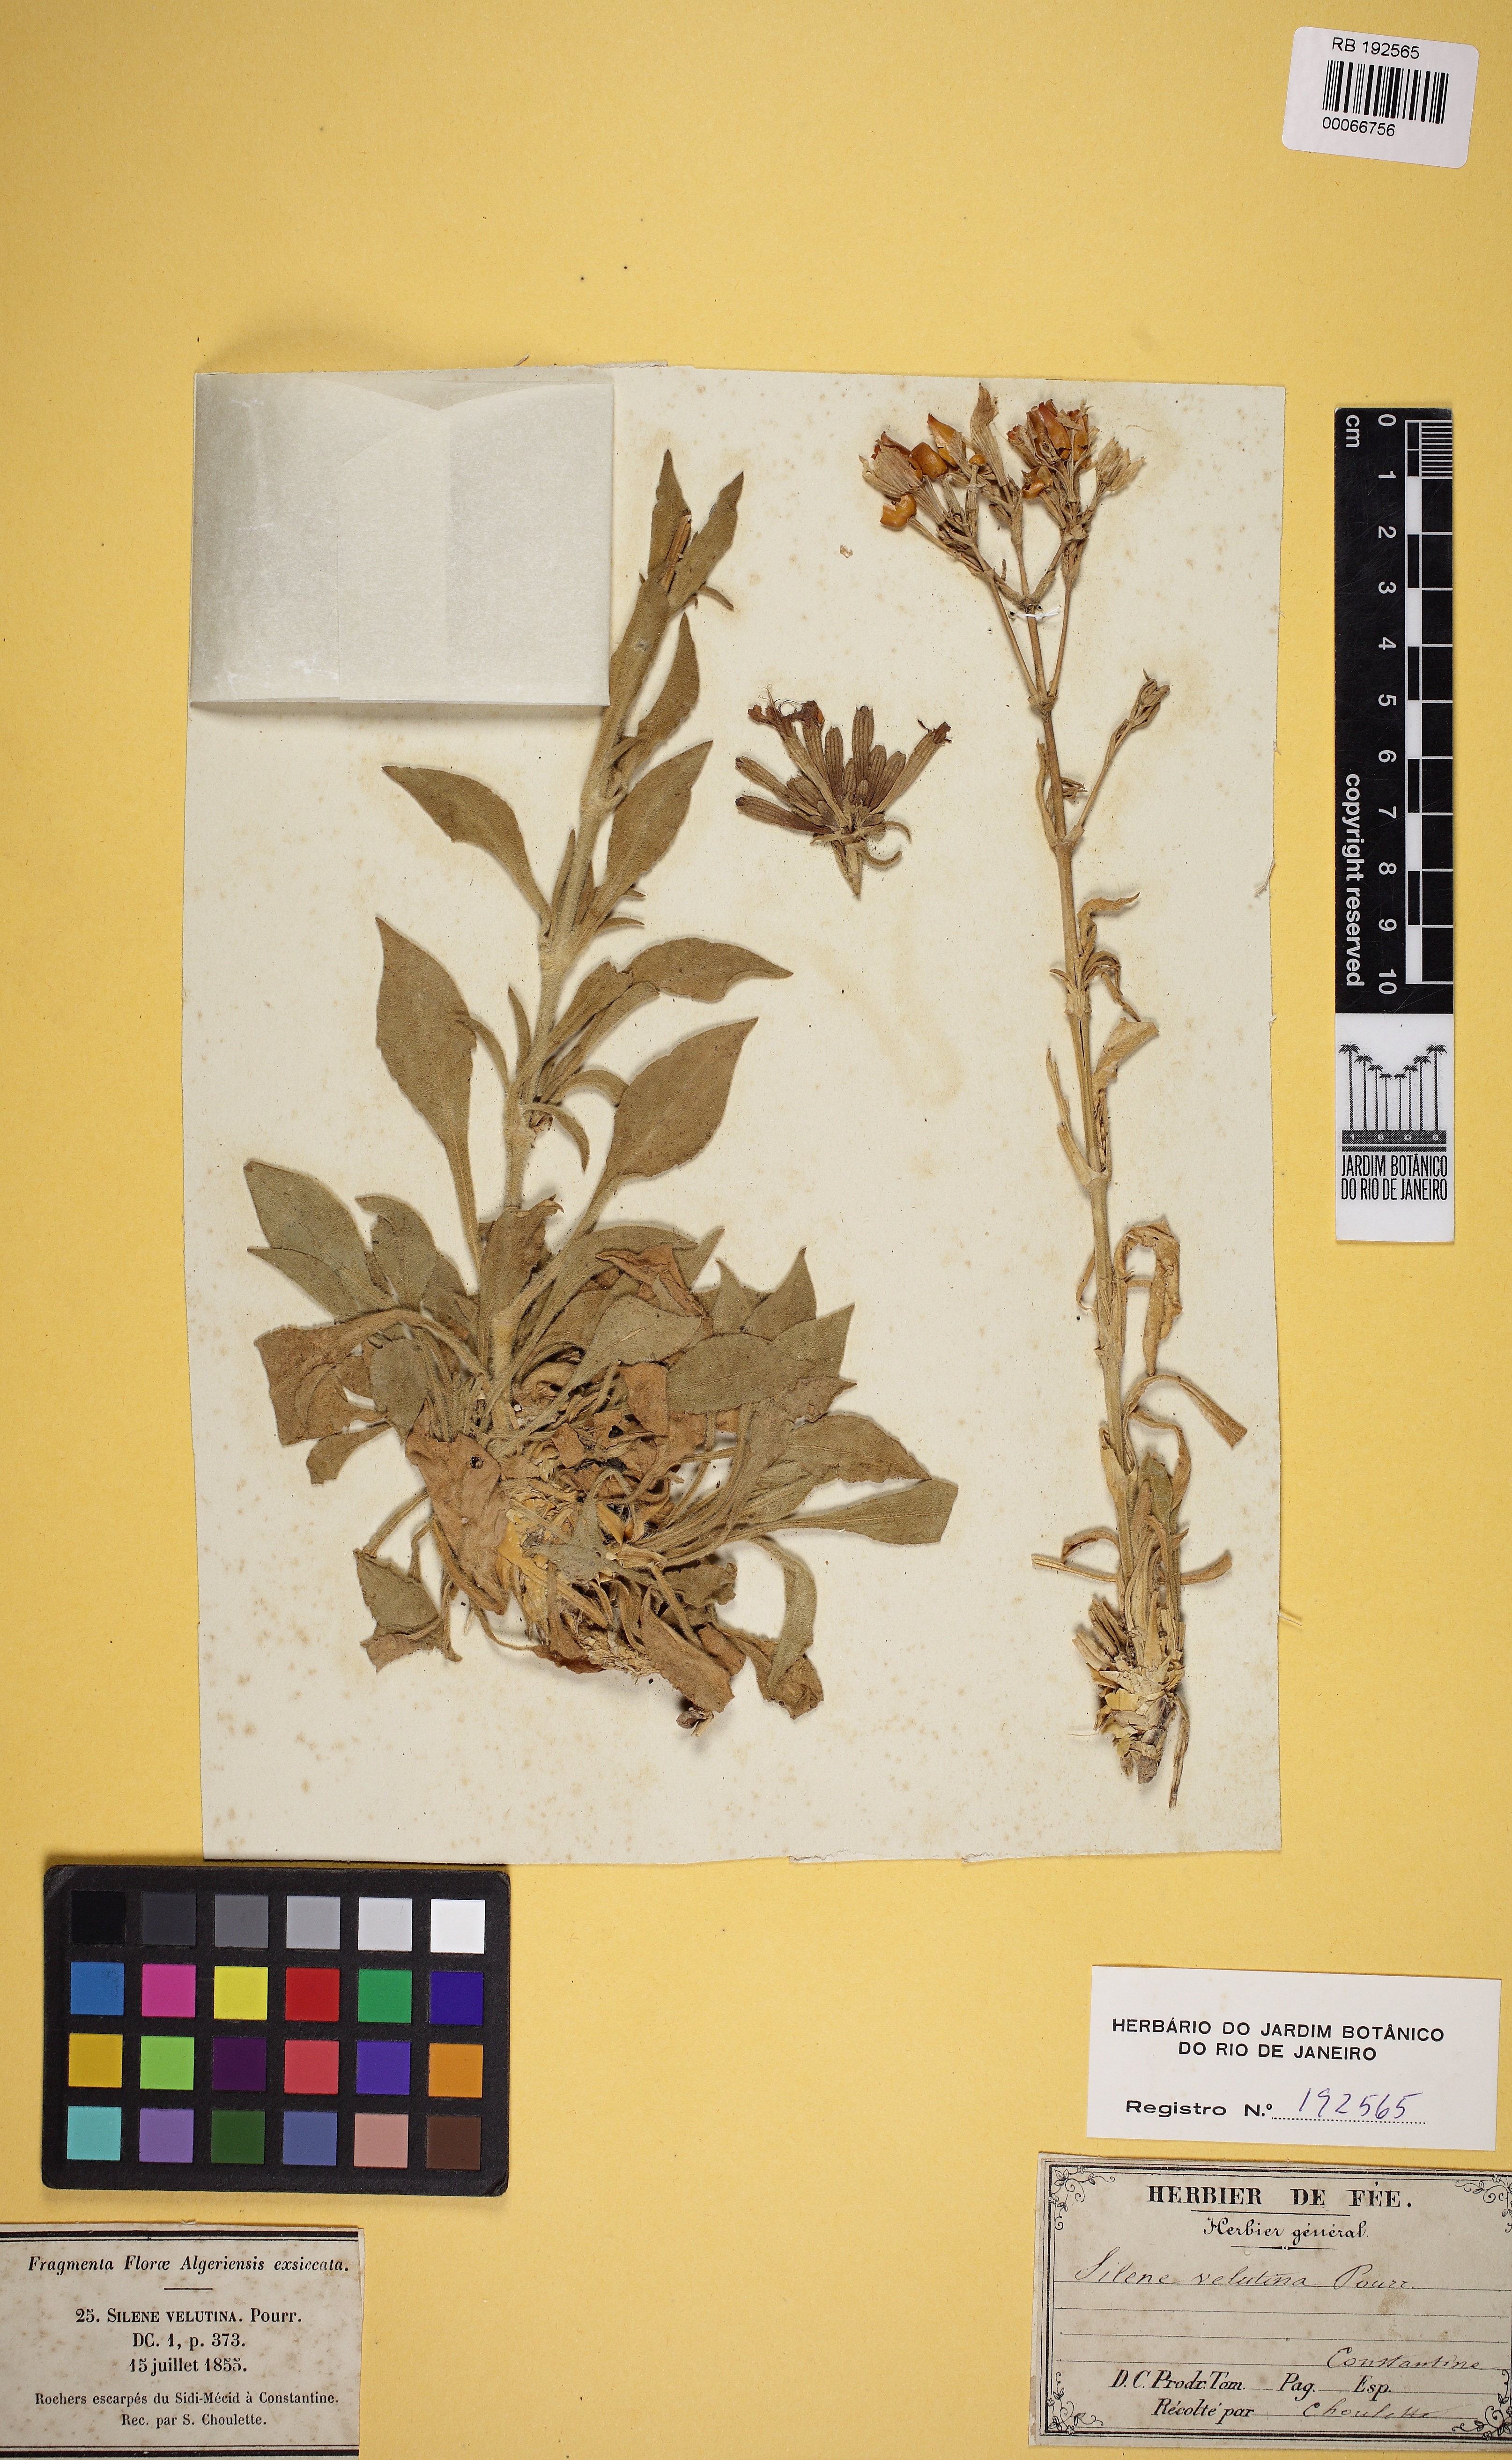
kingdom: Plantae
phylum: Tracheophyta
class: Magnoliopsida
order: Caryophyllales
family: Caryophyllaceae
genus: Silene
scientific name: Silene velutina
